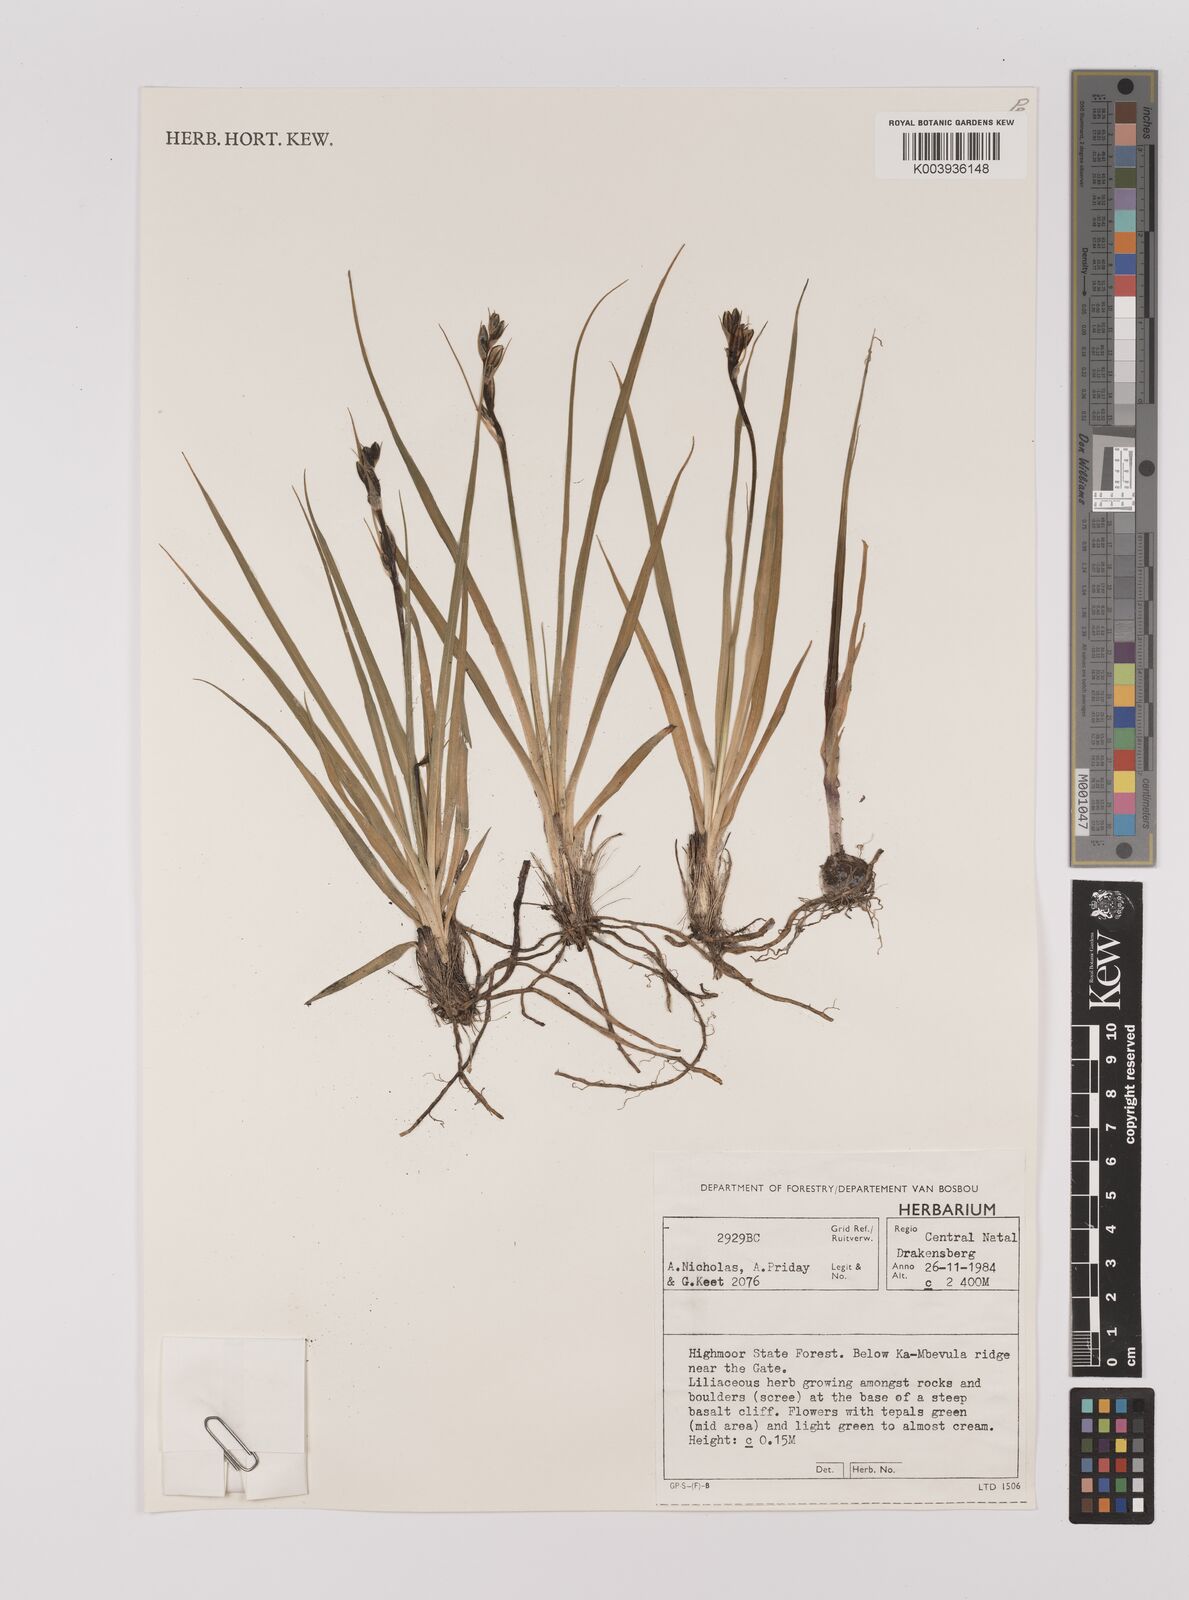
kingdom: Plantae
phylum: Tracheophyta
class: Liliopsida
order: Asparagales
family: Asparagaceae
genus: Chlorophytum
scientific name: Chlorophytum
